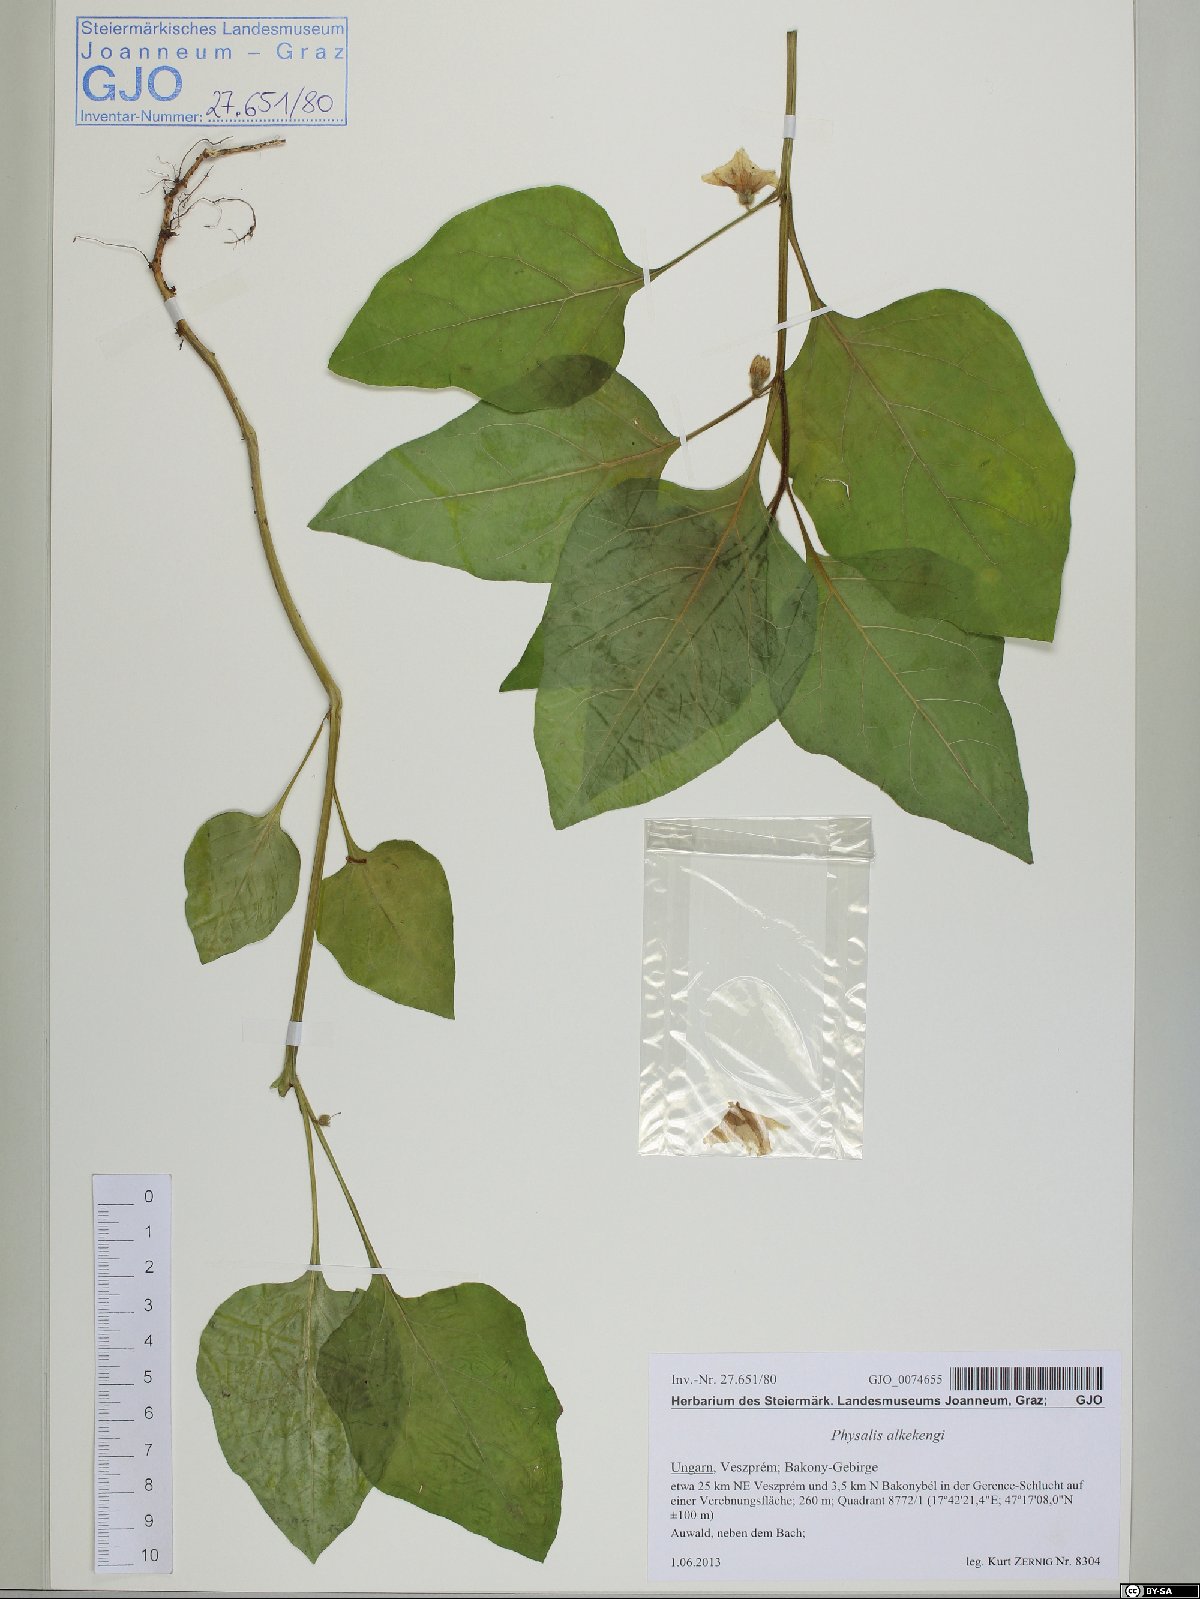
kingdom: Plantae
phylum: Tracheophyta
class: Magnoliopsida
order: Solanales
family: Solanaceae
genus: Alkekengi
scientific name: Alkekengi officinarum
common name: Japanese-lantern
